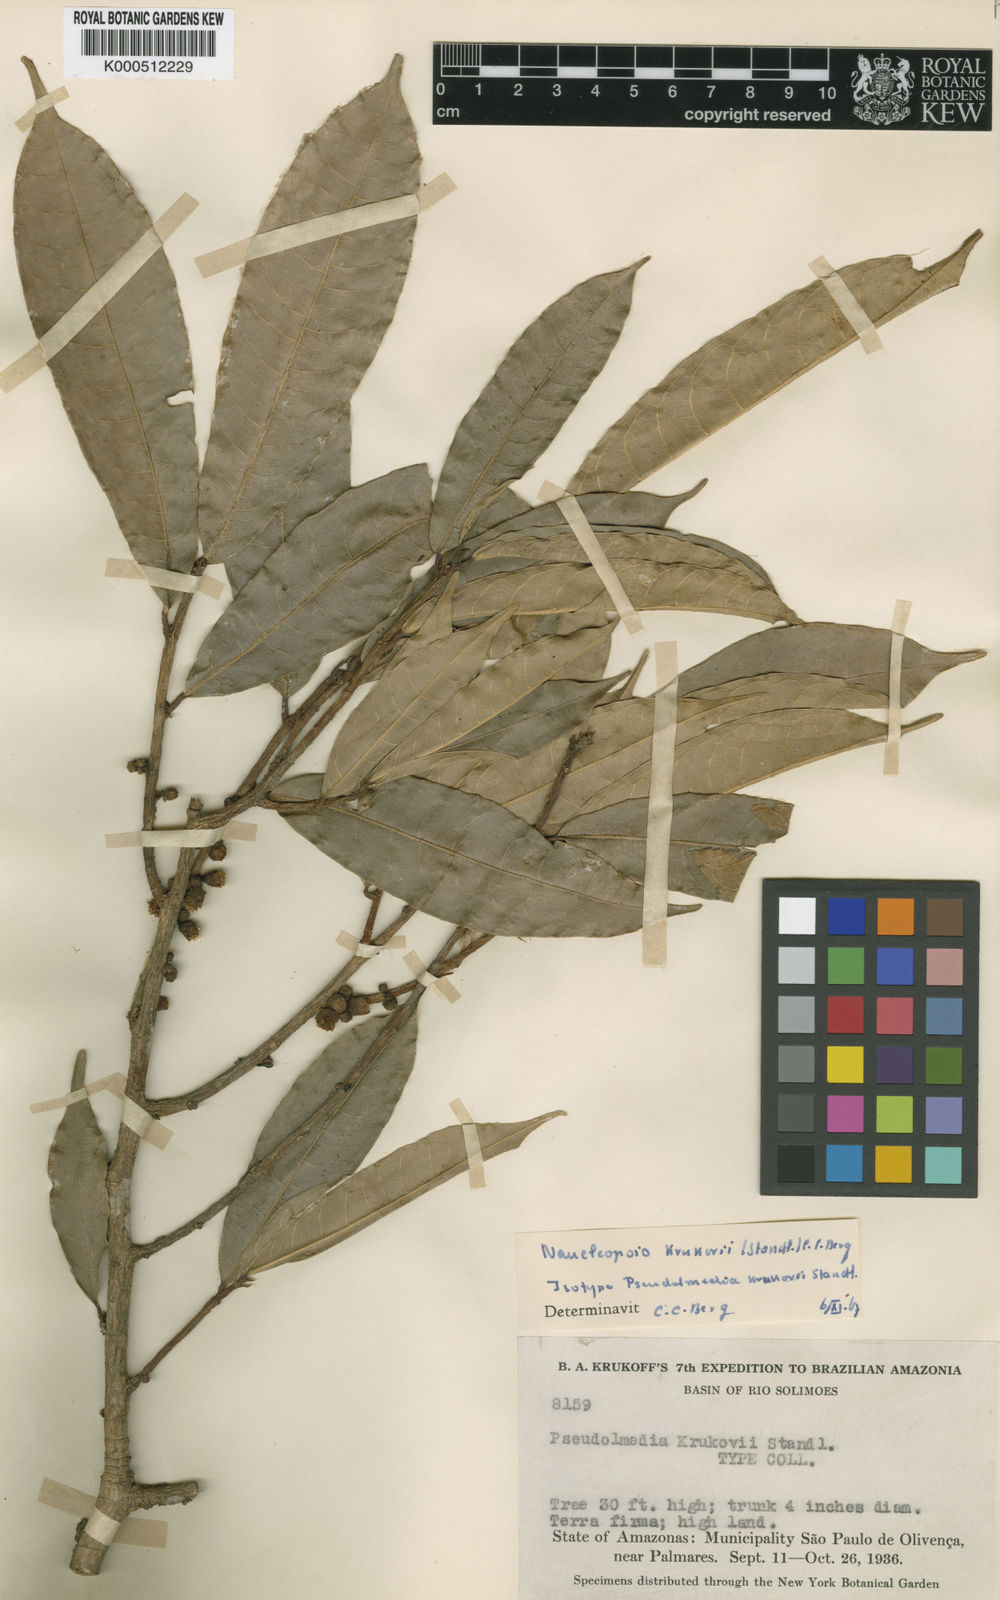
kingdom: Plantae
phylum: Tracheophyta
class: Magnoliopsida
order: Rosales
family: Moraceae
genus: Naucleopsis
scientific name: Naucleopsis krukovii
